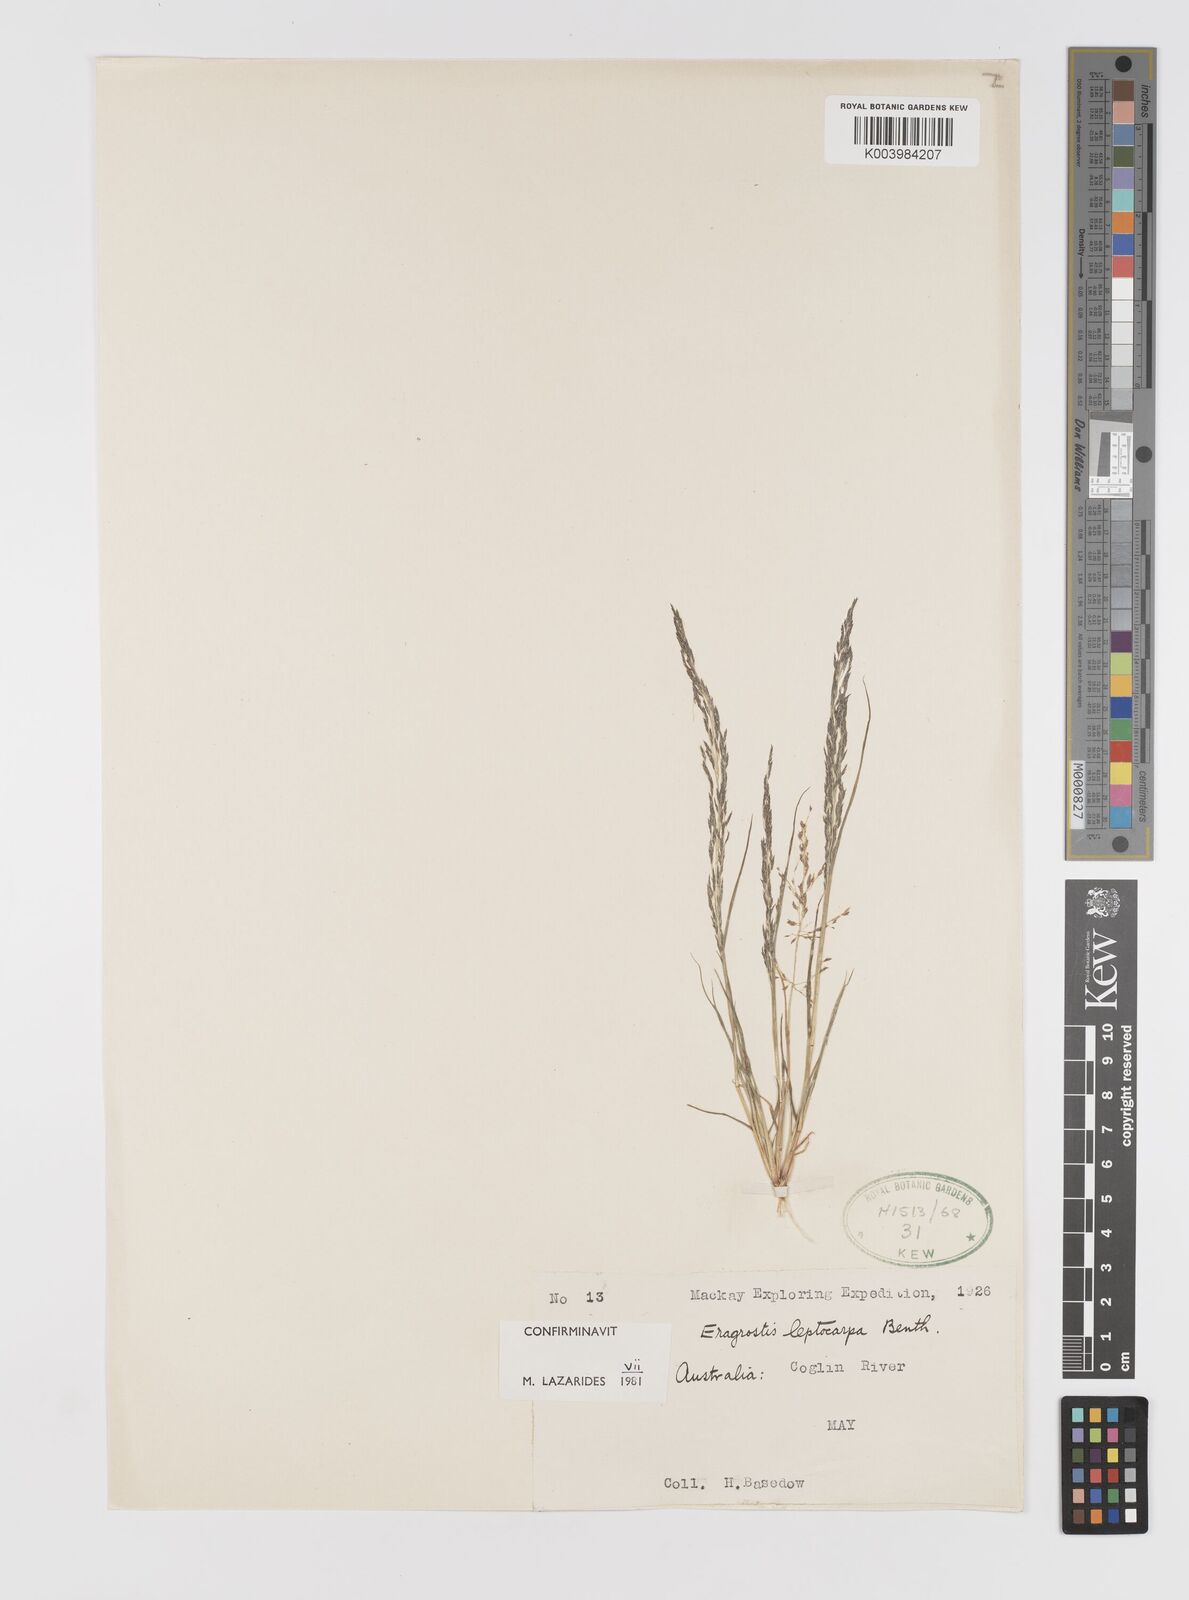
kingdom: Plantae
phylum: Tracheophyta
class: Liliopsida
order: Poales
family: Poaceae
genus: Eragrostis
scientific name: Eragrostis leptocarpa
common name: Drooping love grass
